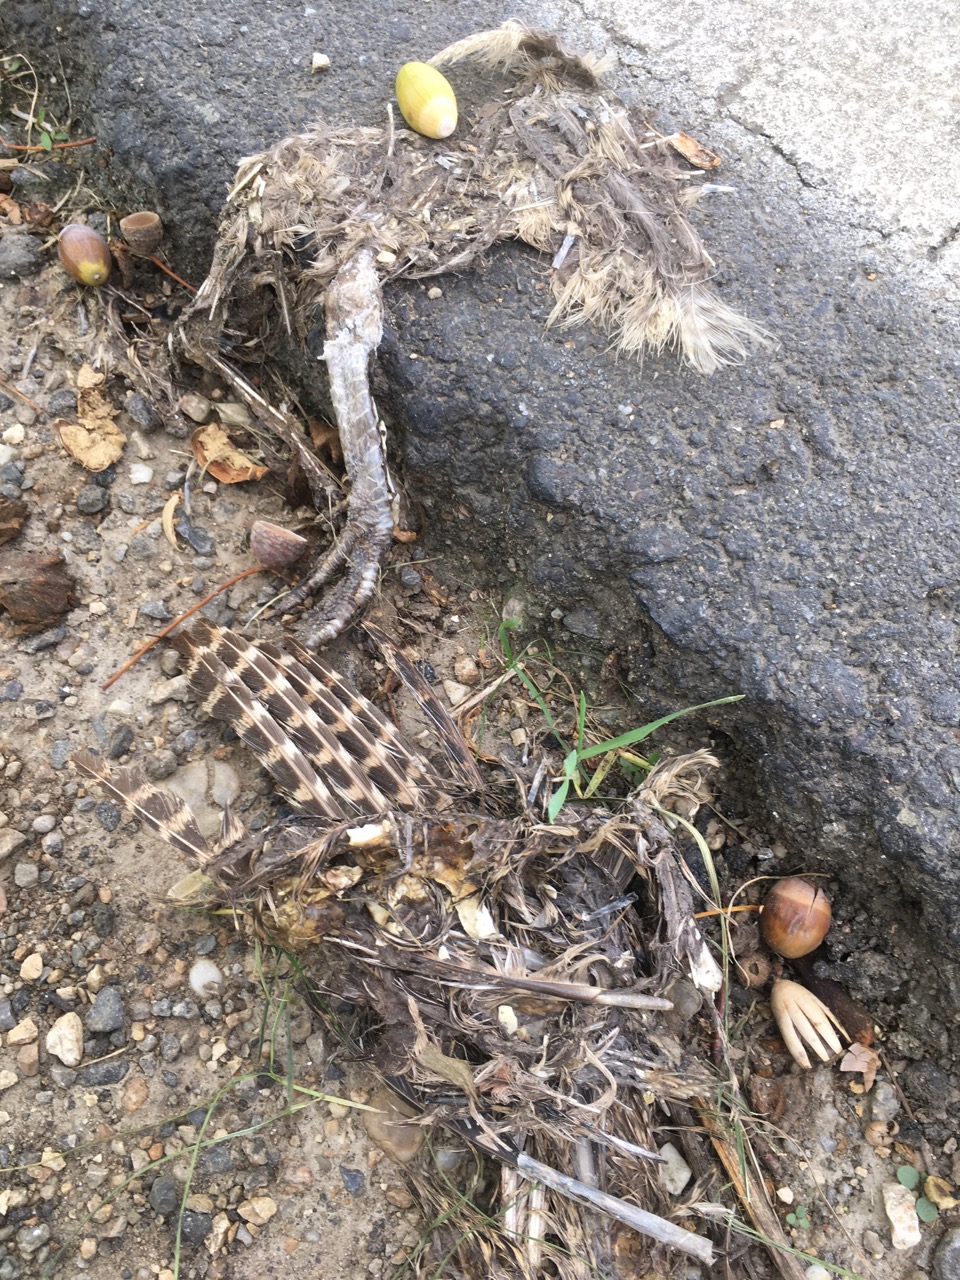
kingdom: Animalia
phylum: Chordata
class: Aves
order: Galliformes
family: Phasianidae
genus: Phasianus
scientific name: Phasianus colchicus
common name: Common pheasant
